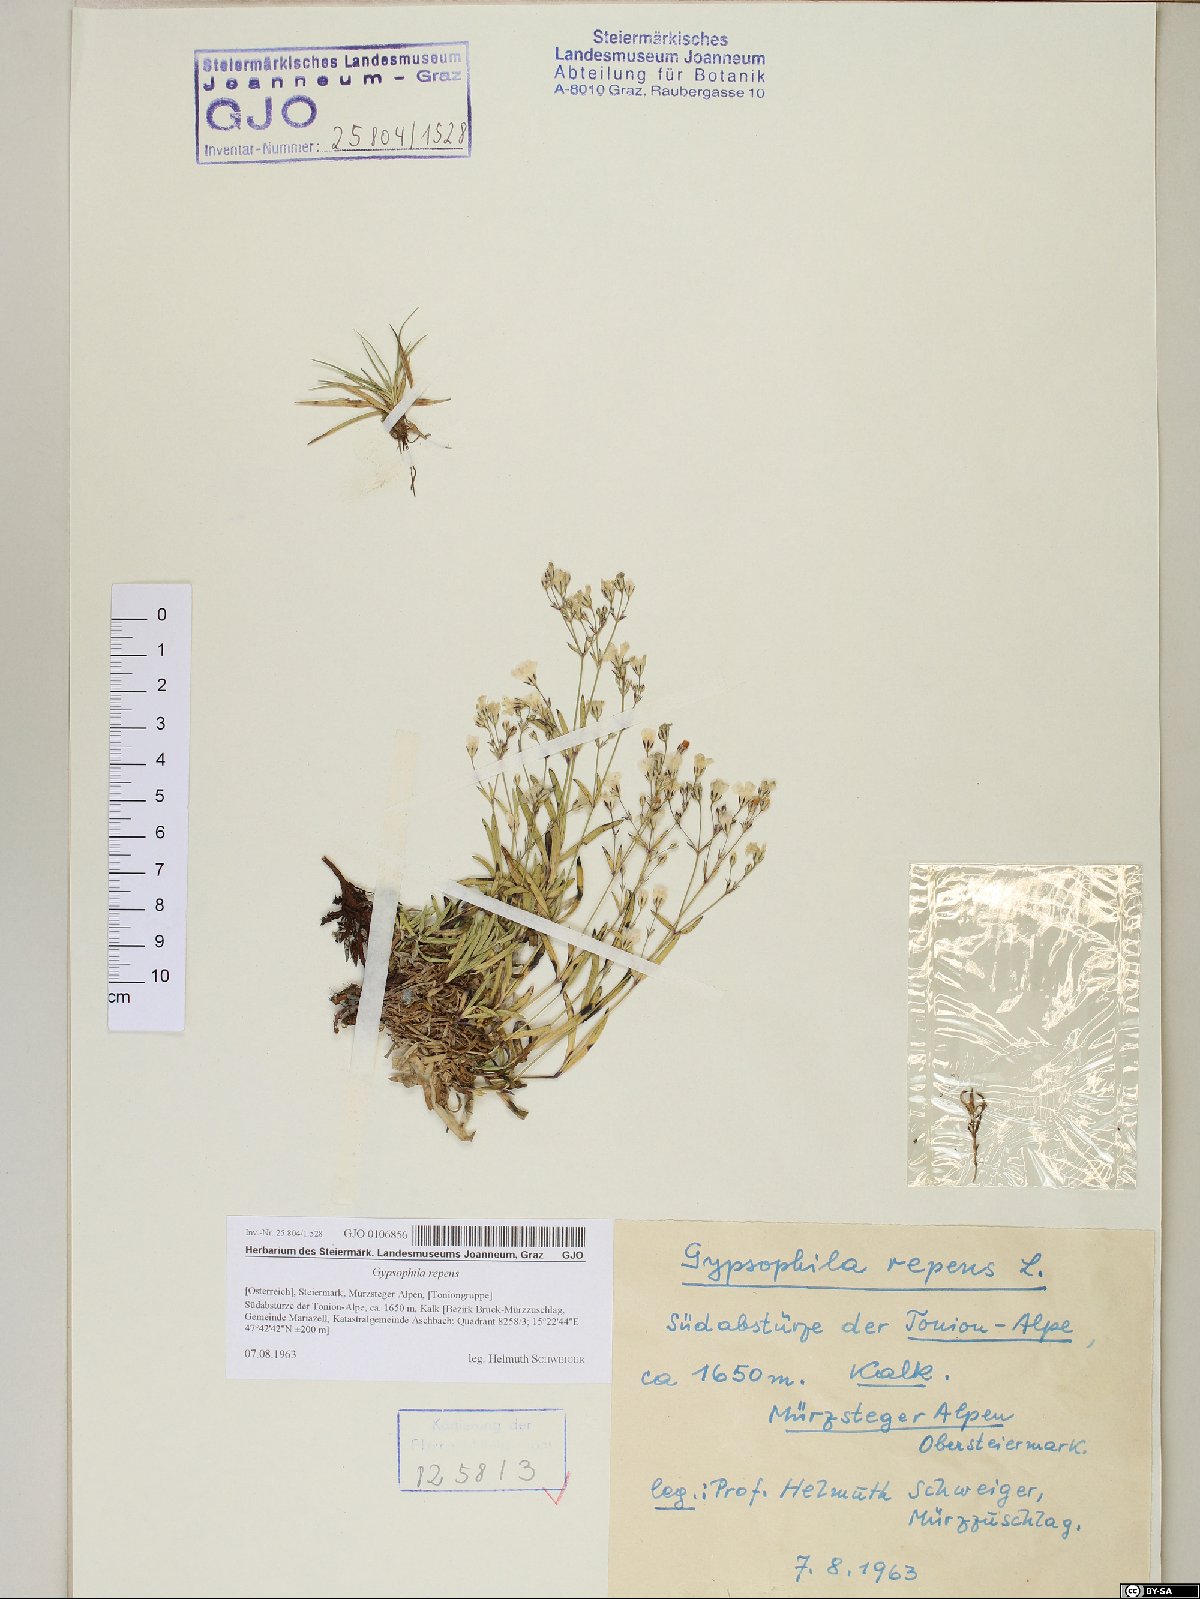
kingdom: Plantae
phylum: Tracheophyta
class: Magnoliopsida
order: Caryophyllales
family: Caryophyllaceae
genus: Gypsophila
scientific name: Gypsophila repens
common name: Creeping baby's-breath
